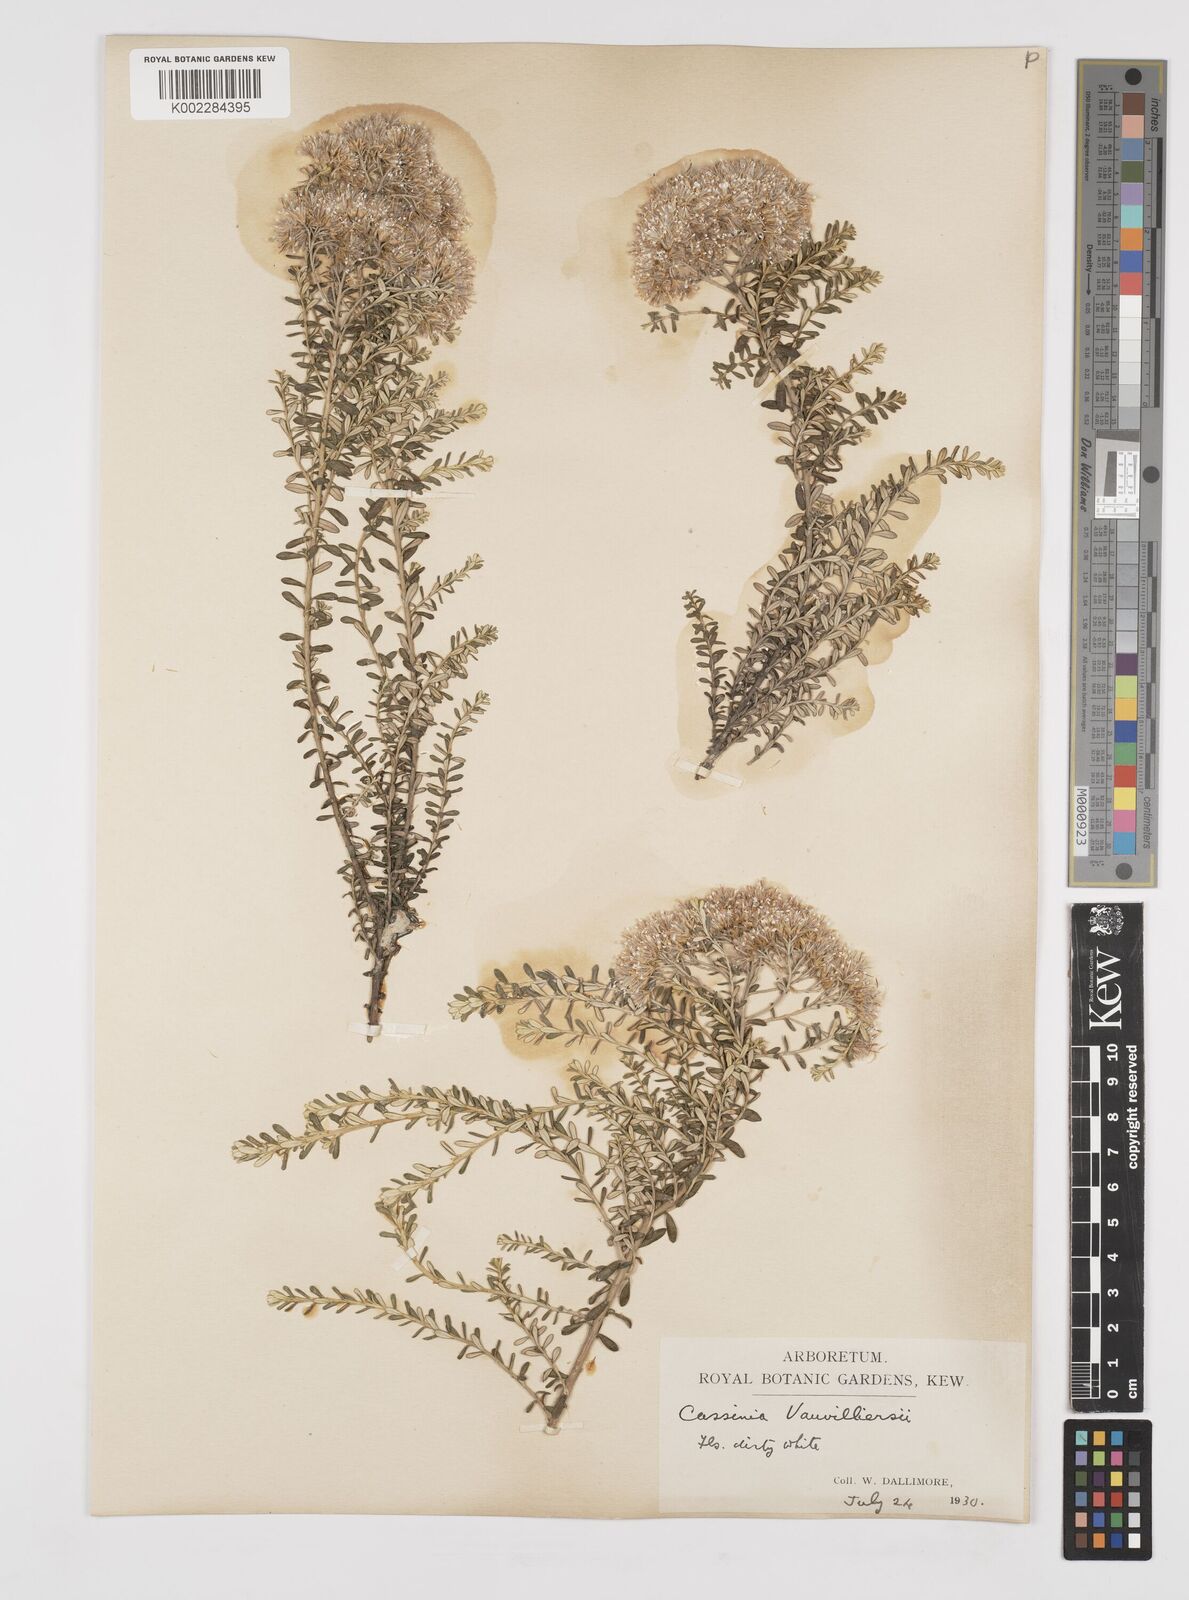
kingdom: Plantae
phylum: Tracheophyta
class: Magnoliopsida
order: Asterales
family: Asteraceae
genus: Ozothamnus
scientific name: Ozothamnus leptophyllus
